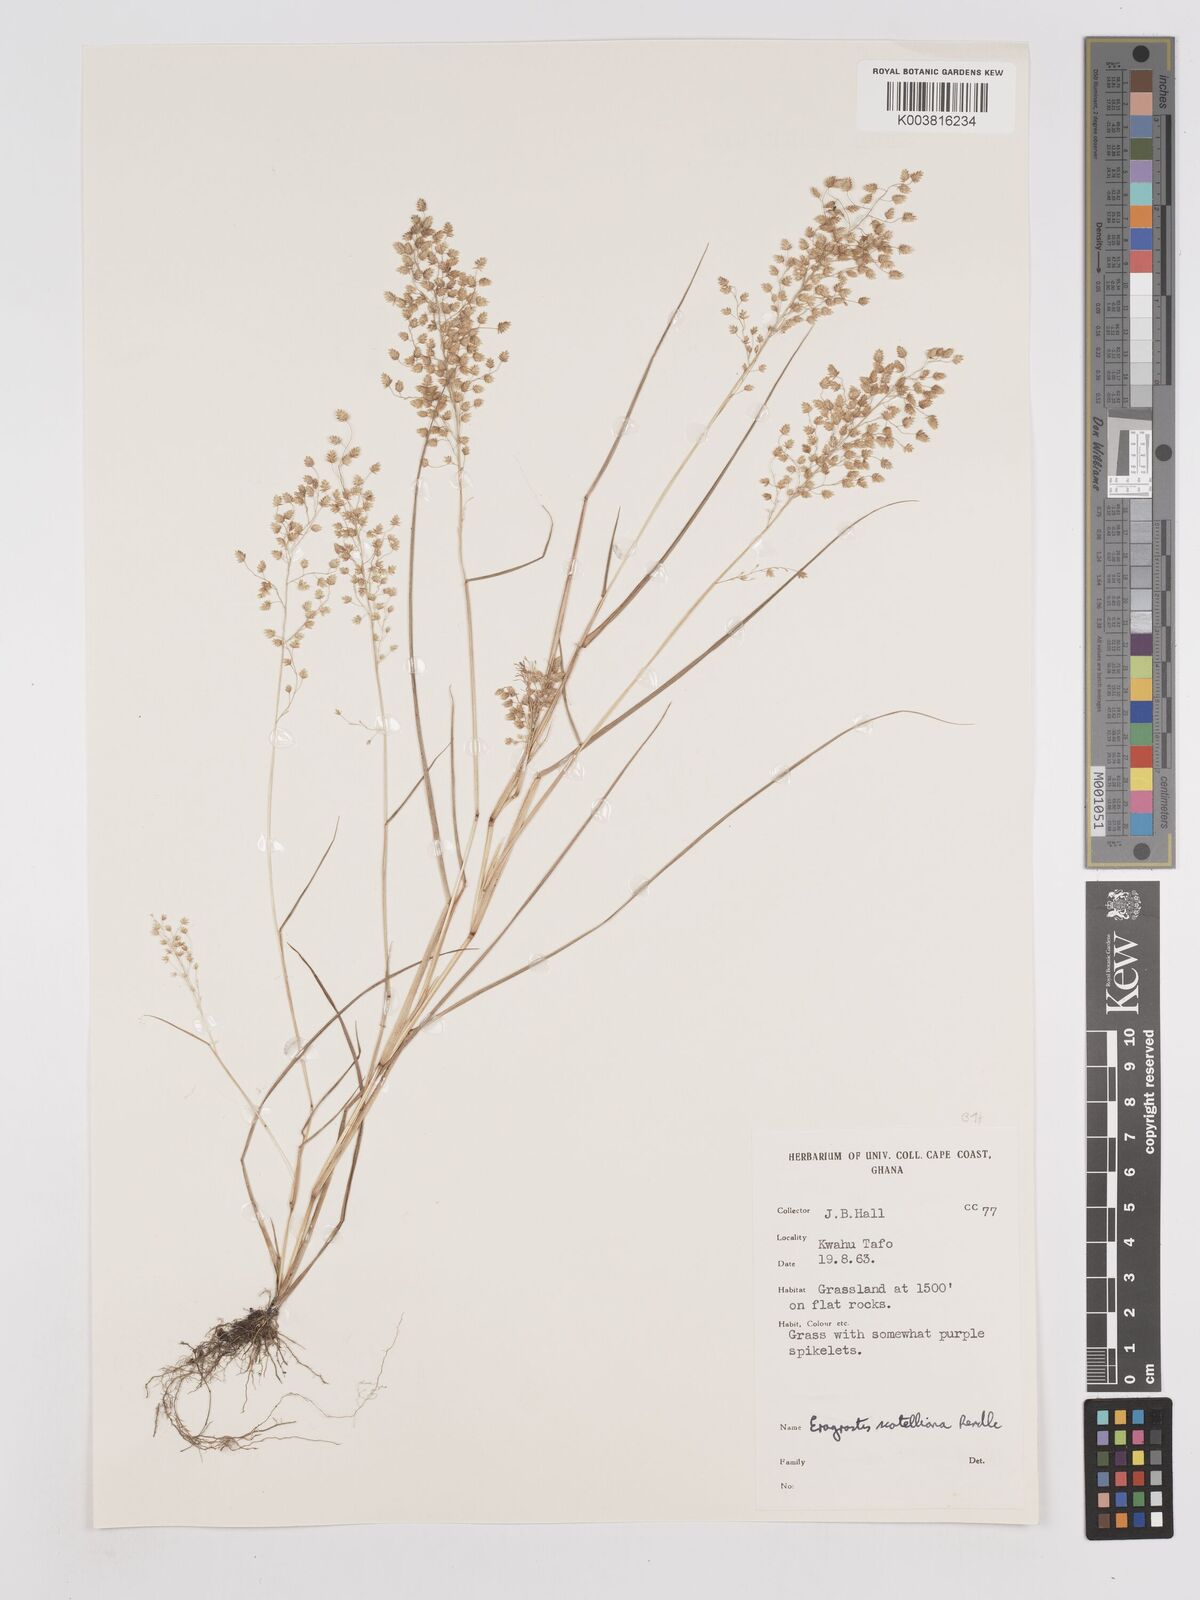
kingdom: Plantae
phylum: Tracheophyta
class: Liliopsida
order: Poales
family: Poaceae
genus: Eragrostis
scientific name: Eragrostis scotelliana
